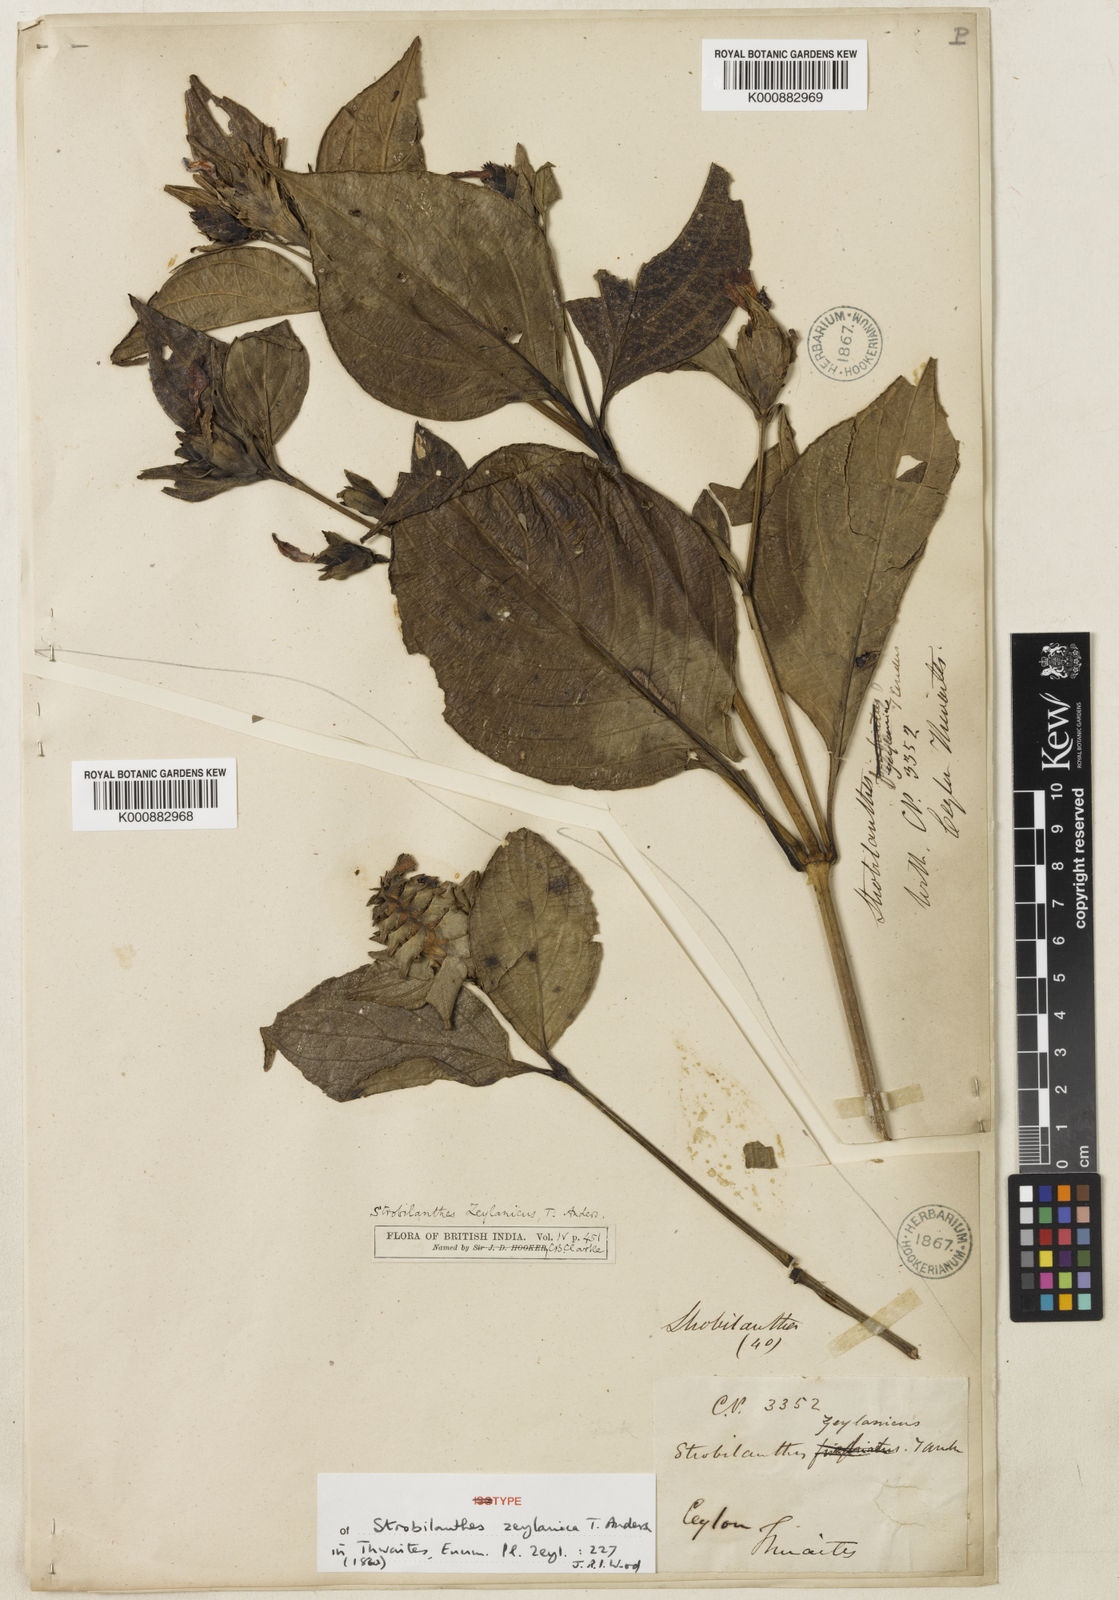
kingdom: Plantae
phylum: Tracheophyta
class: Magnoliopsida
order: Lamiales
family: Acanthaceae
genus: Strobilanthes
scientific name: Strobilanthes zeylanica
